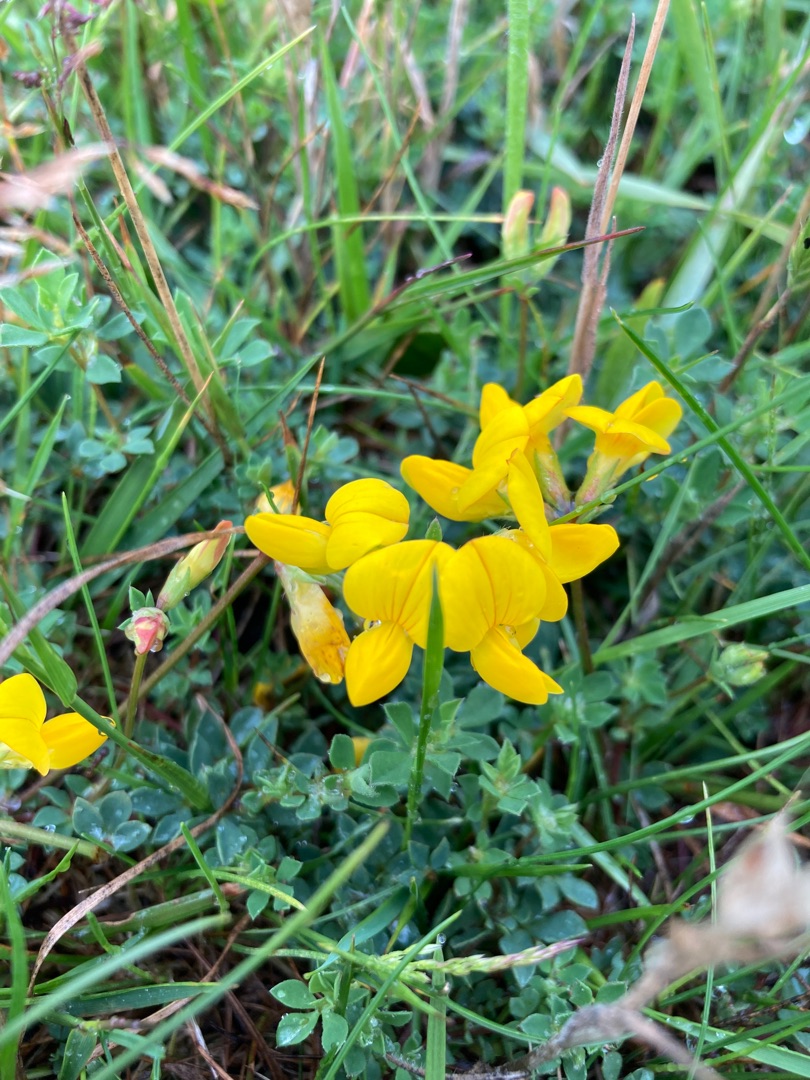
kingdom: Plantae
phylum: Tracheophyta
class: Magnoliopsida
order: Fabales
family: Fabaceae
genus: Lotus
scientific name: Lotus corniculatus
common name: Almindelig kællingetand
